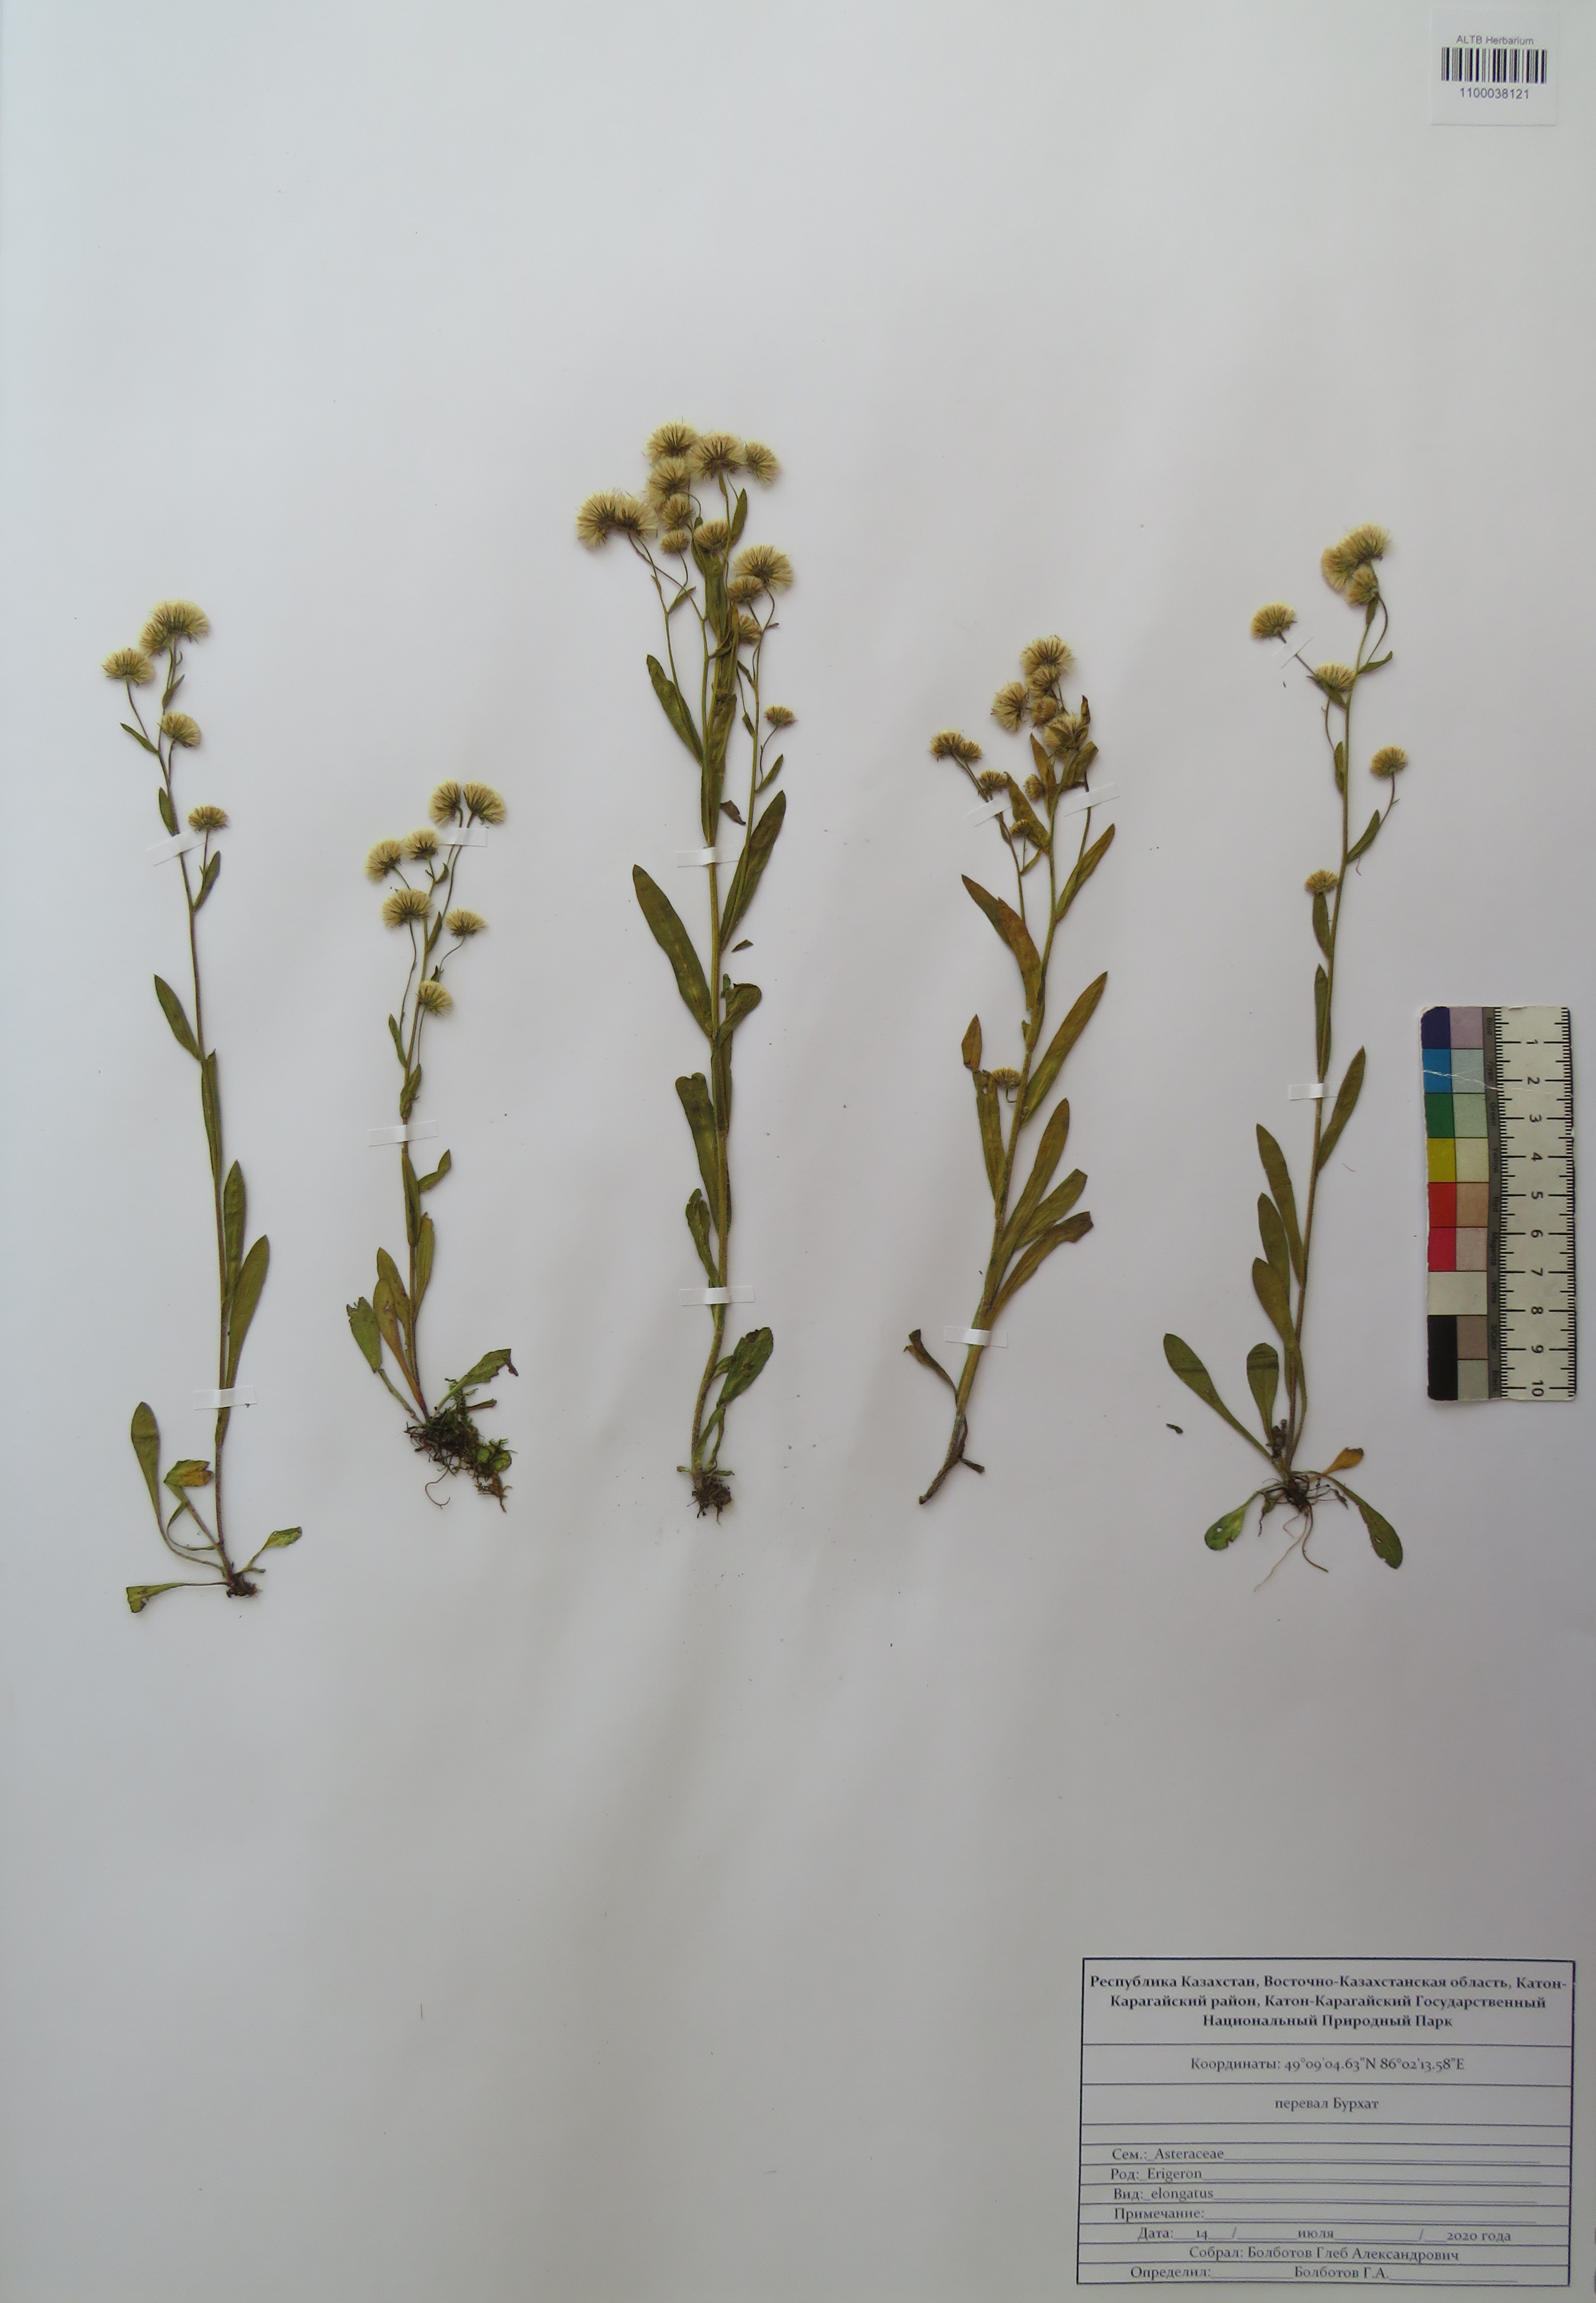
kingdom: Plantae
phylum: Tracheophyta
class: Magnoliopsida
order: Asterales
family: Asteraceae
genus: Erigeron
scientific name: Erigeron politus
